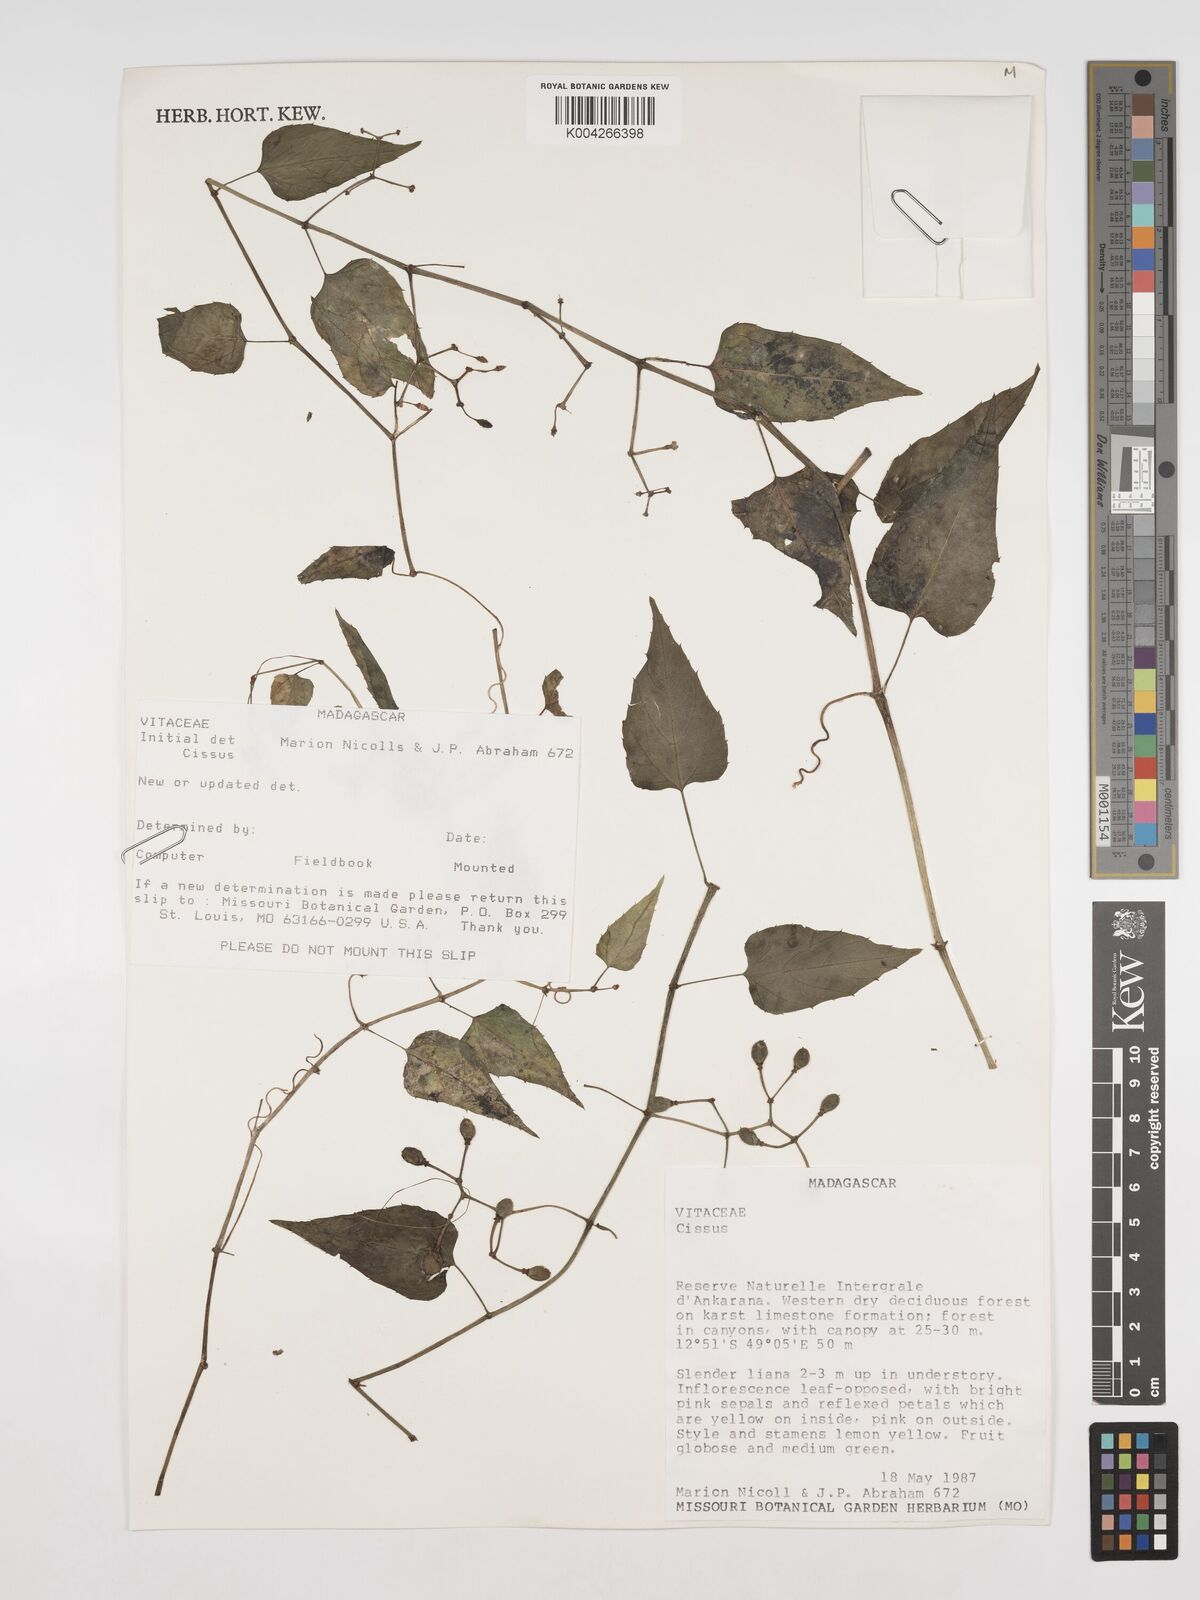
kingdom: Plantae
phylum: Tracheophyta
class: Magnoliopsida
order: Vitales
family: Vitaceae
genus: Cissus
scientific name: Cissus
